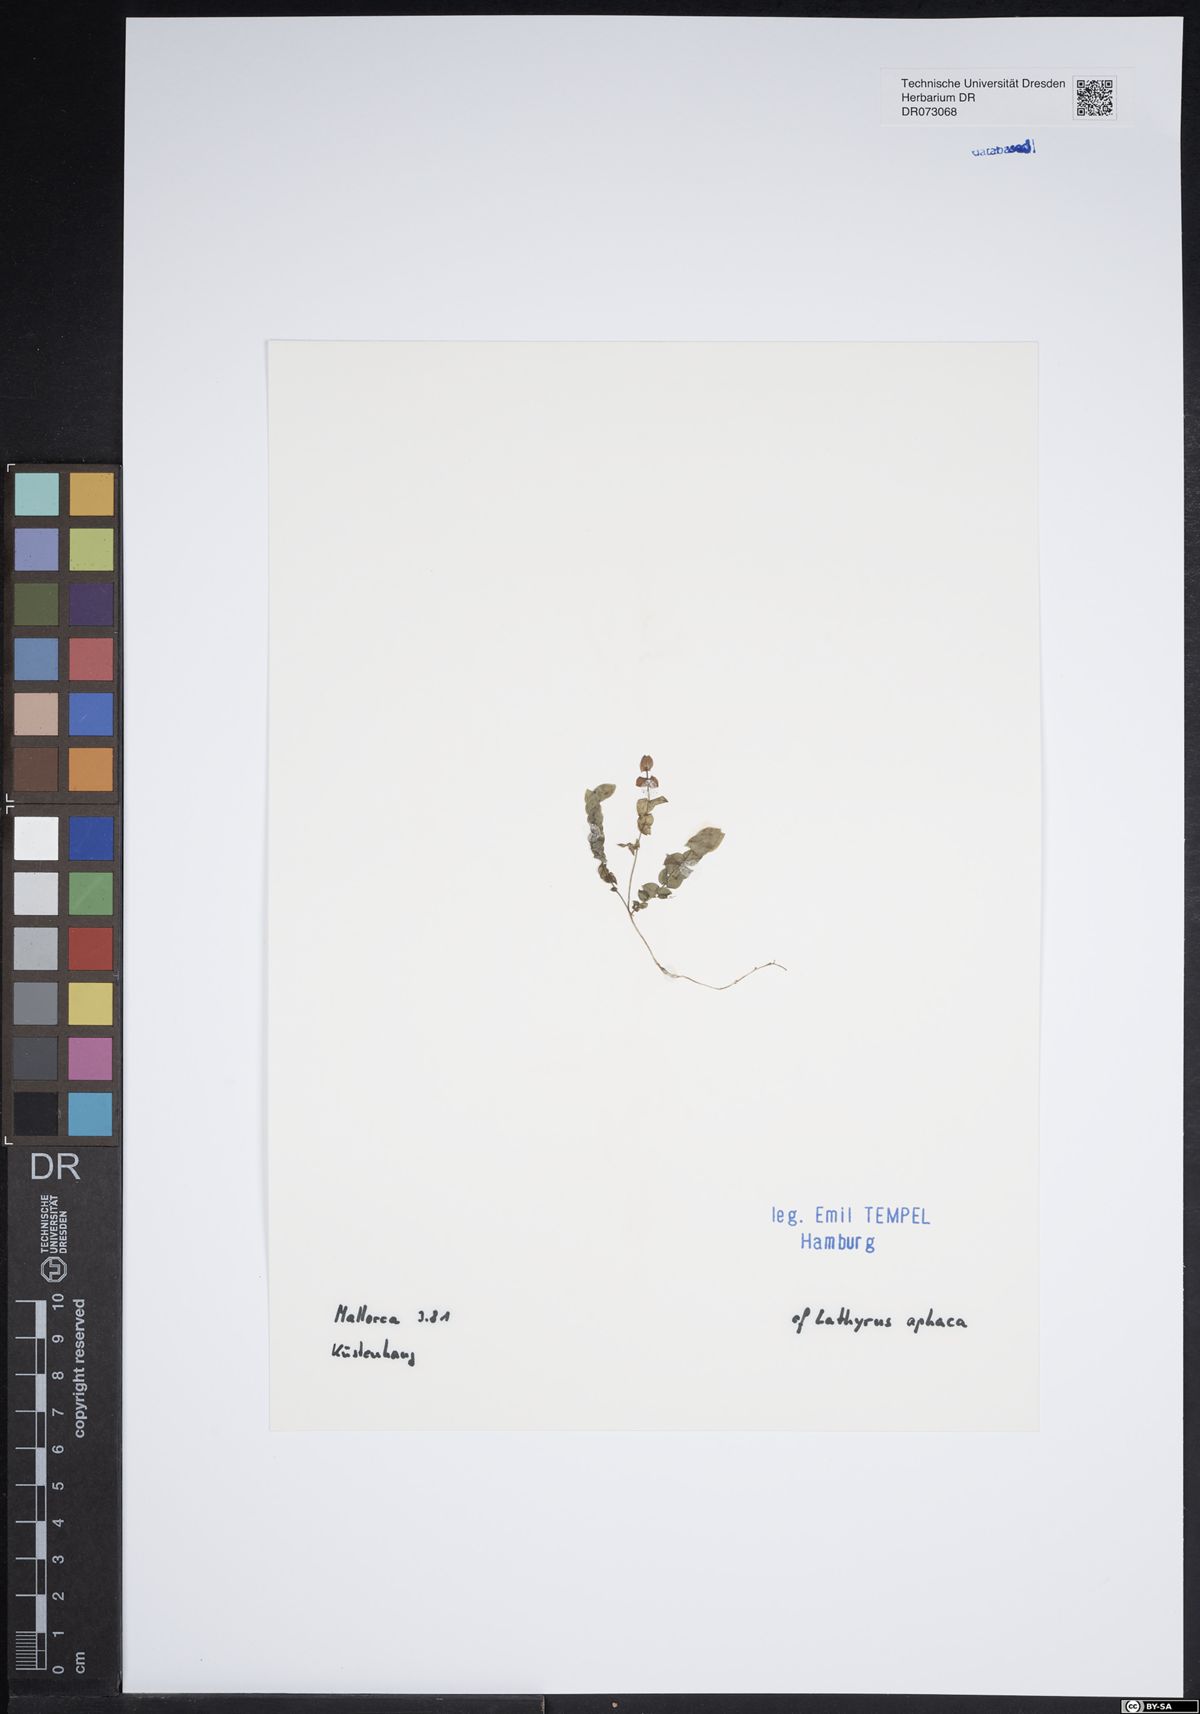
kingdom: Plantae
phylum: Tracheophyta
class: Magnoliopsida
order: Fabales
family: Fabaceae
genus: Lathyrus
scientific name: Lathyrus aphaca
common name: Yellow vetchling
